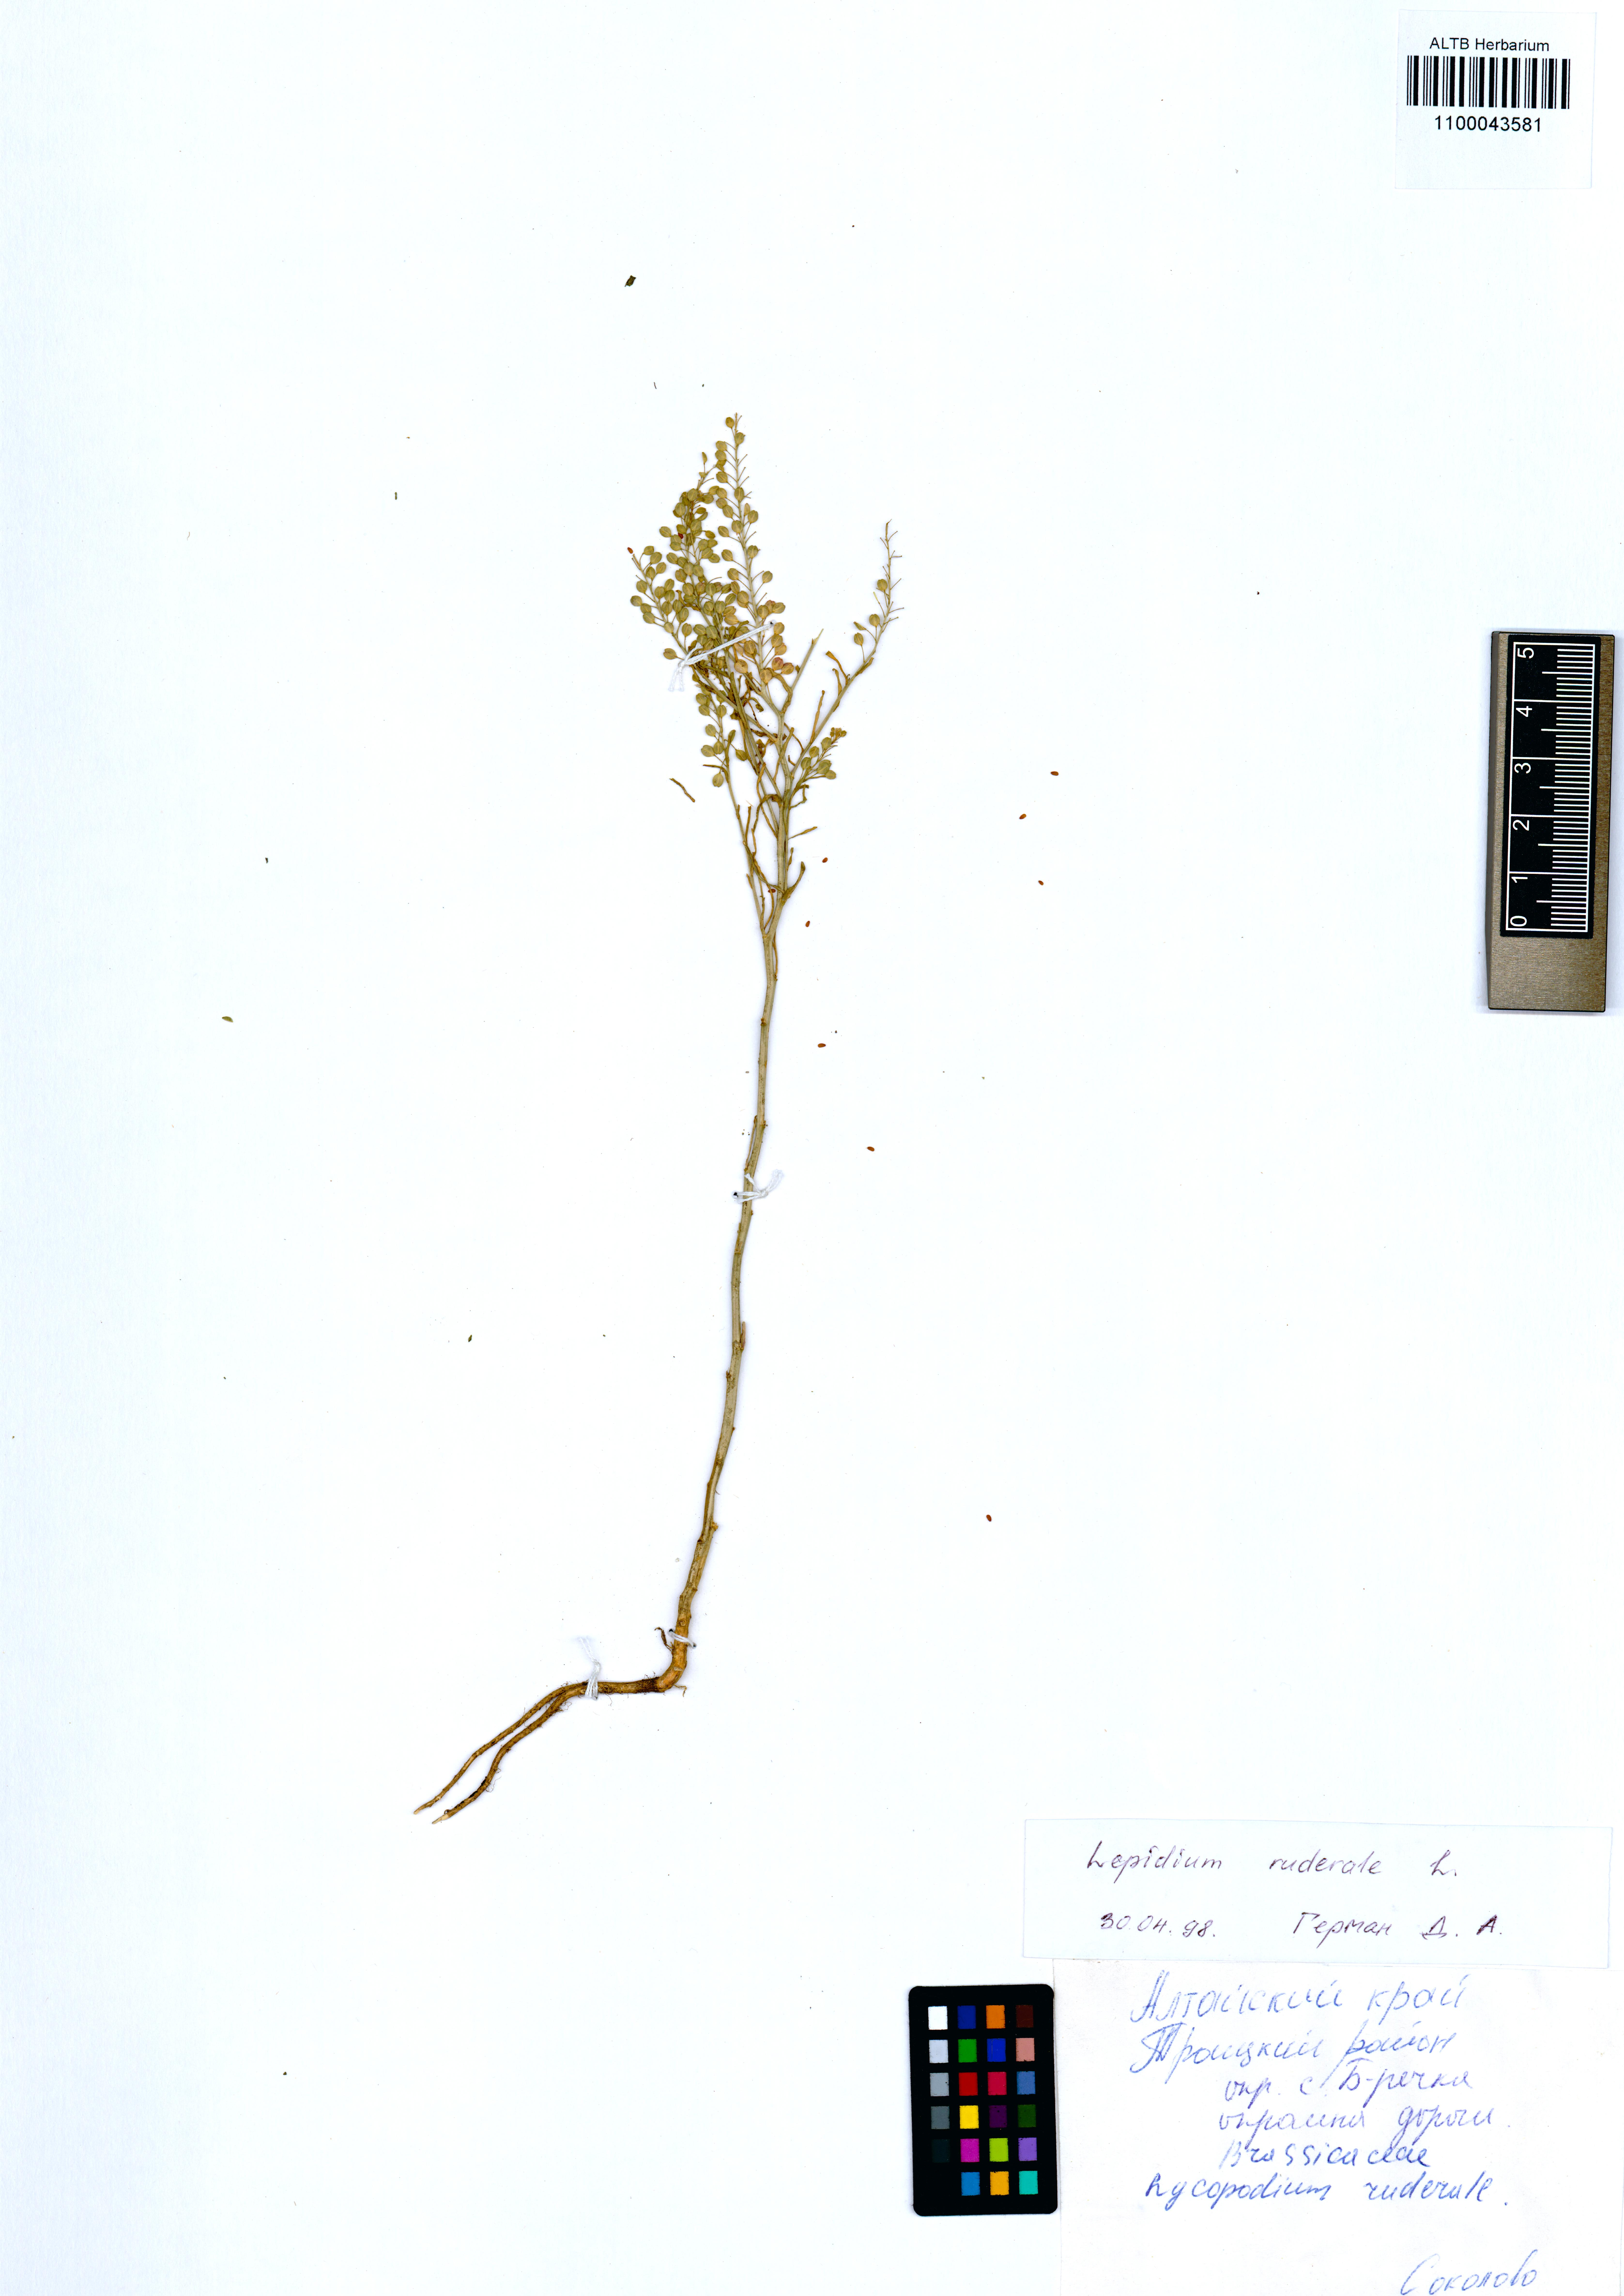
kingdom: Plantae
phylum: Tracheophyta
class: Magnoliopsida
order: Brassicales
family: Brassicaceae
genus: Lepidium
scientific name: Lepidium ruderale
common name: Narrow-leaved pepperwort
